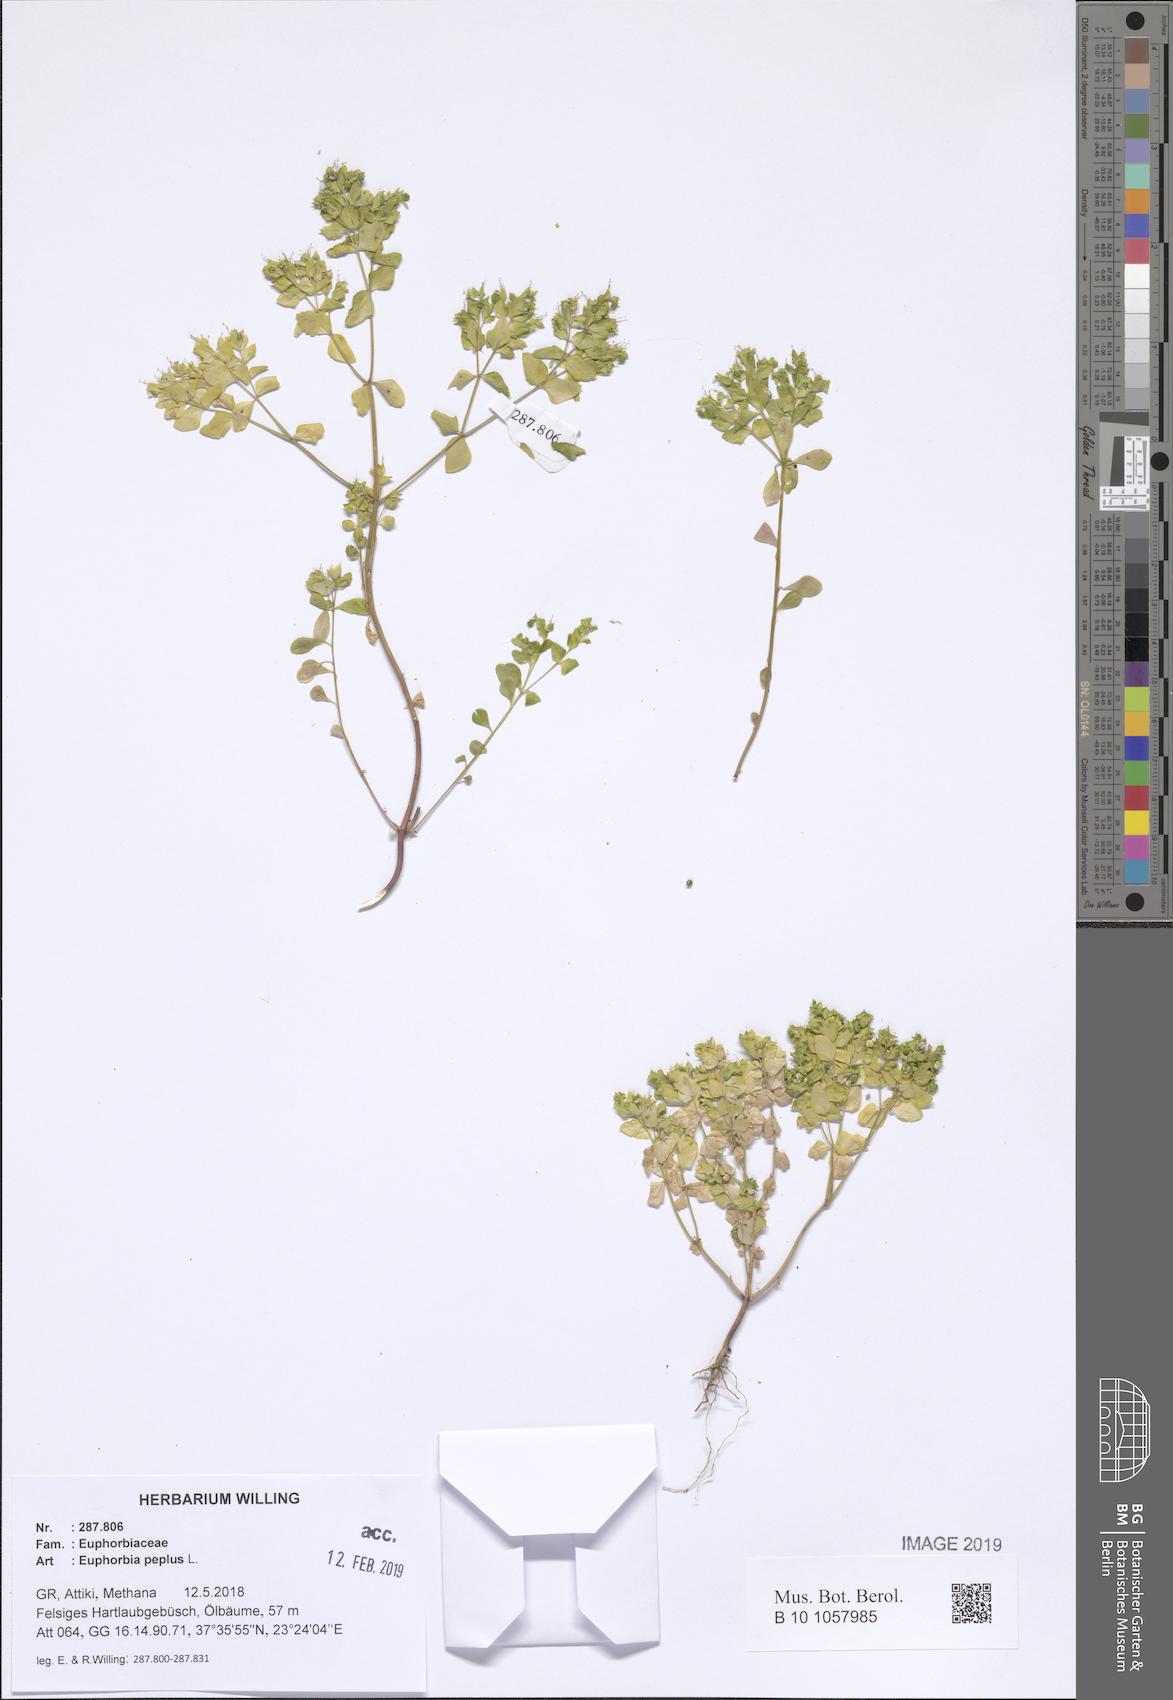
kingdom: Plantae
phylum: Tracheophyta
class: Magnoliopsida
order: Malpighiales
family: Euphorbiaceae
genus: Euphorbia
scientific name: Euphorbia peplus
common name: Petty spurge
